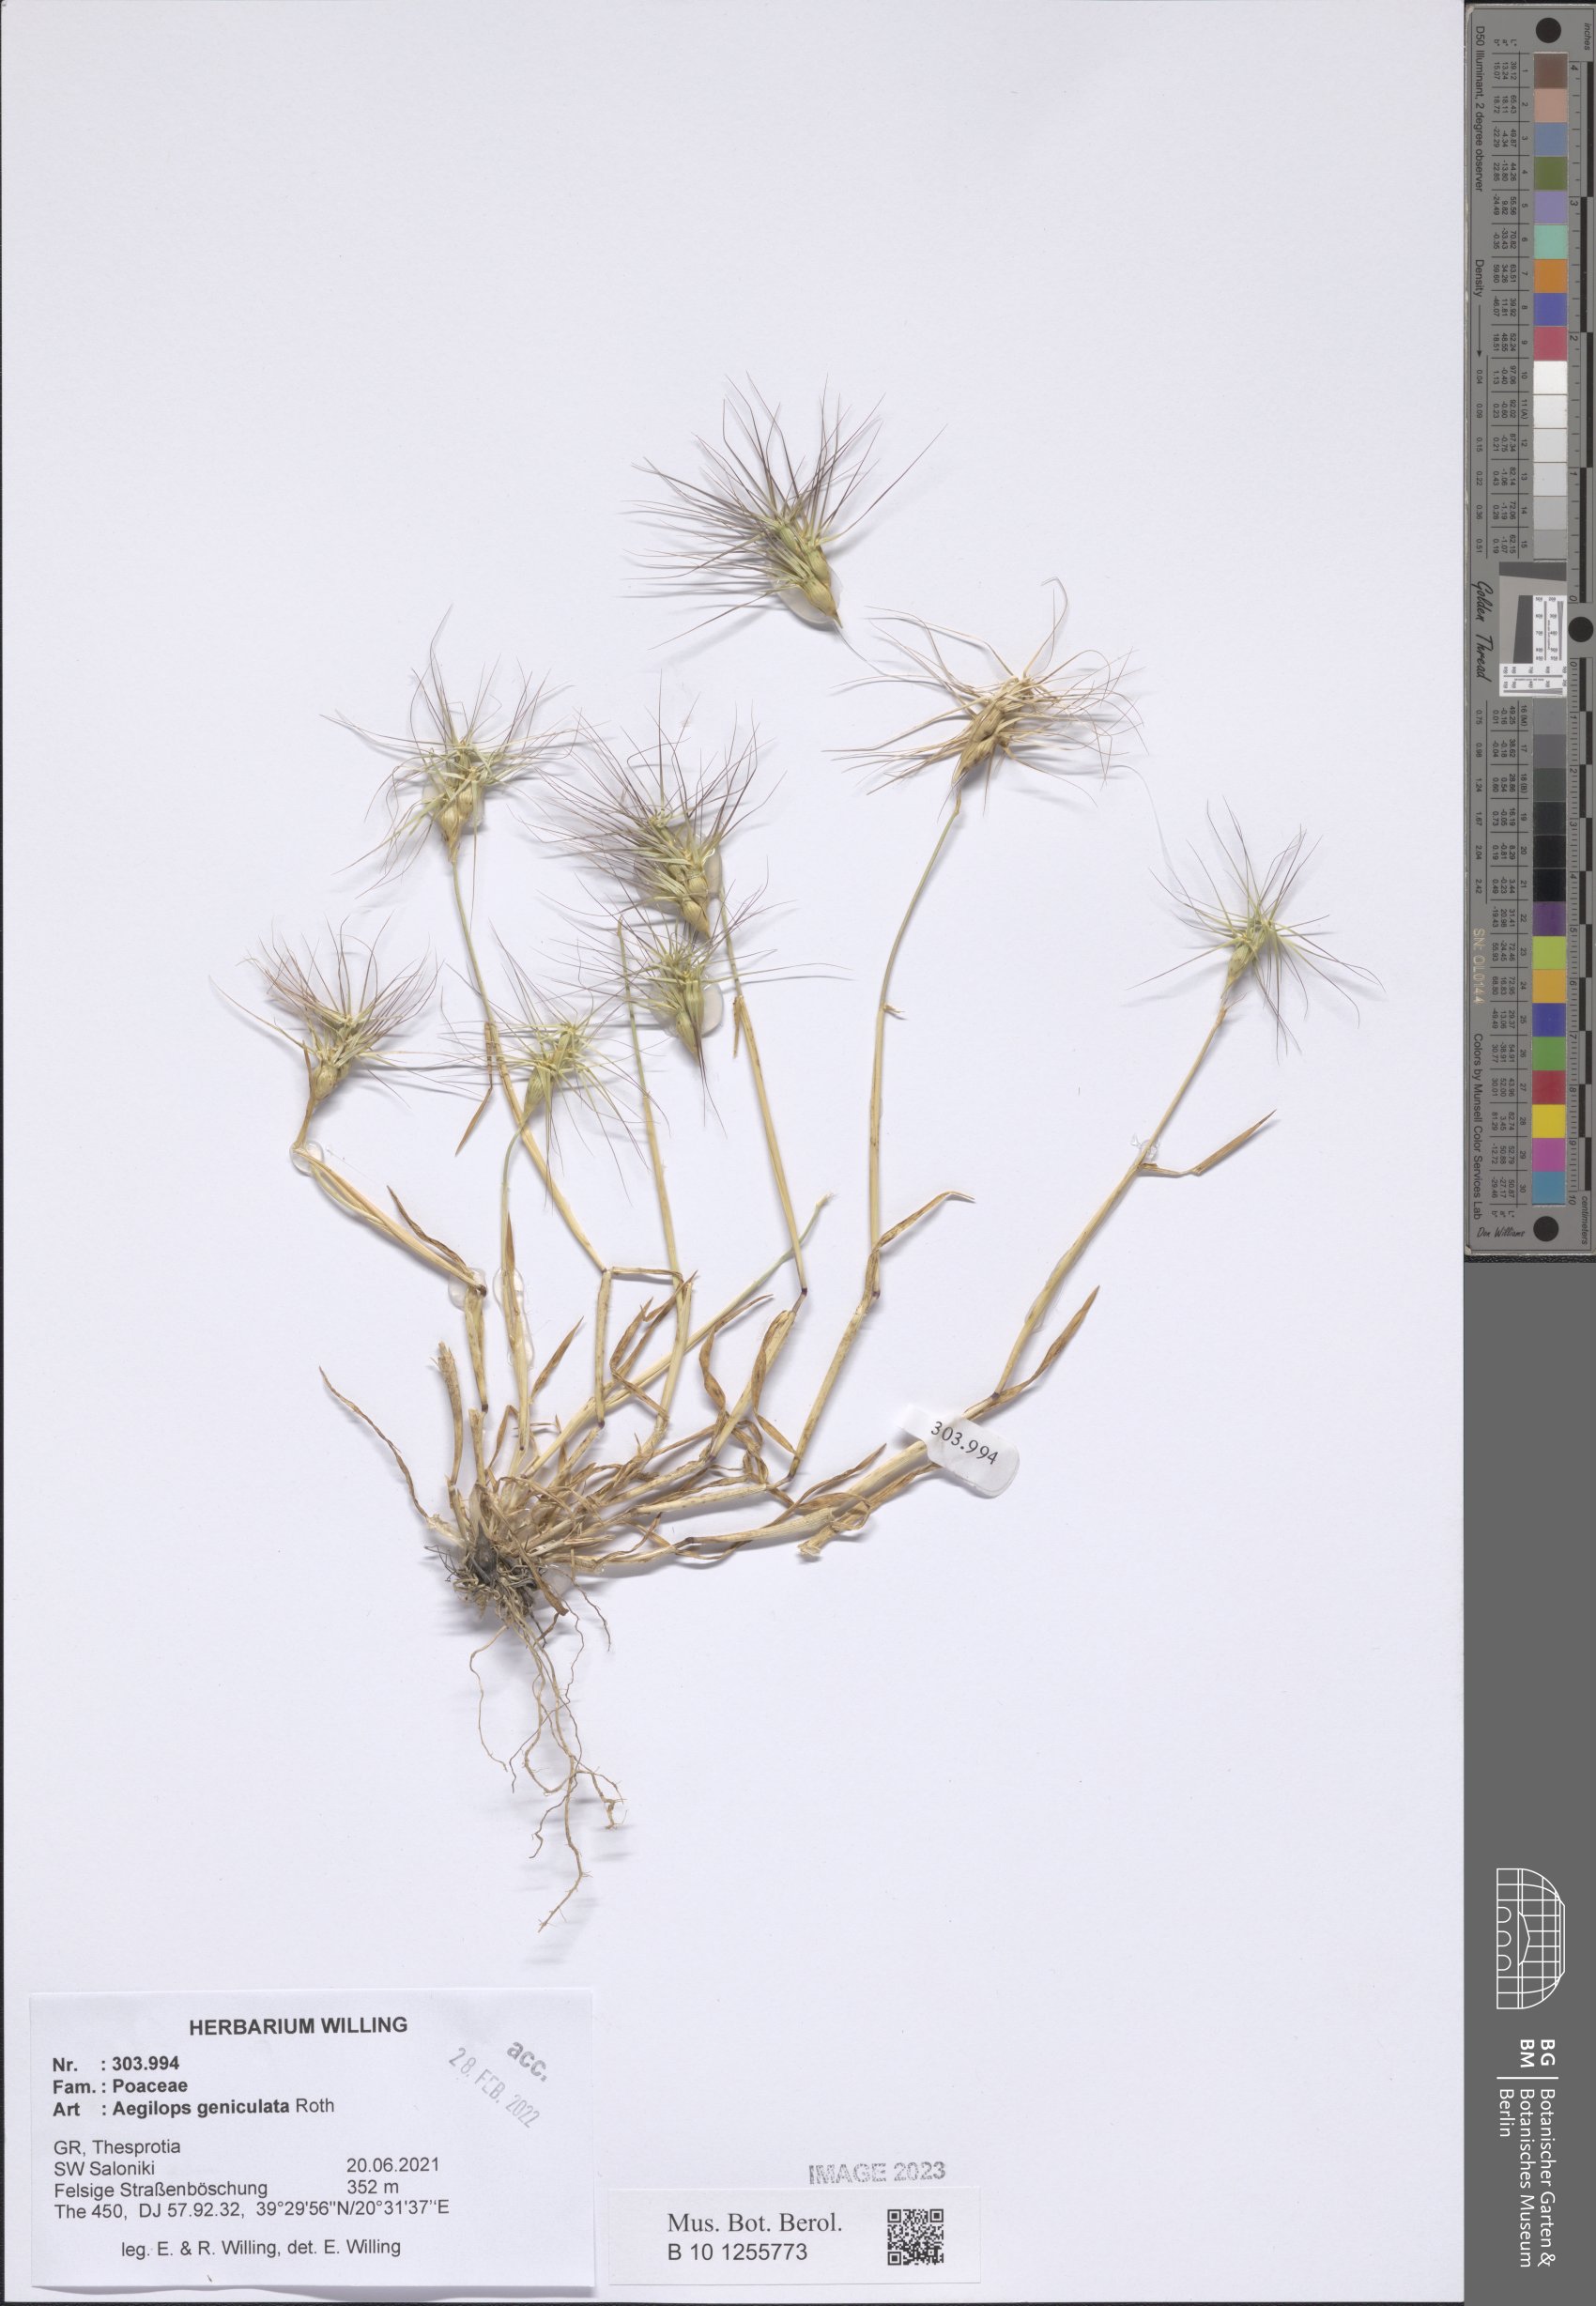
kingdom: Plantae
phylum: Tracheophyta
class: Liliopsida
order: Poales
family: Poaceae
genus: Aegilops
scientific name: Aegilops geniculata
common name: Ovate goat grass
